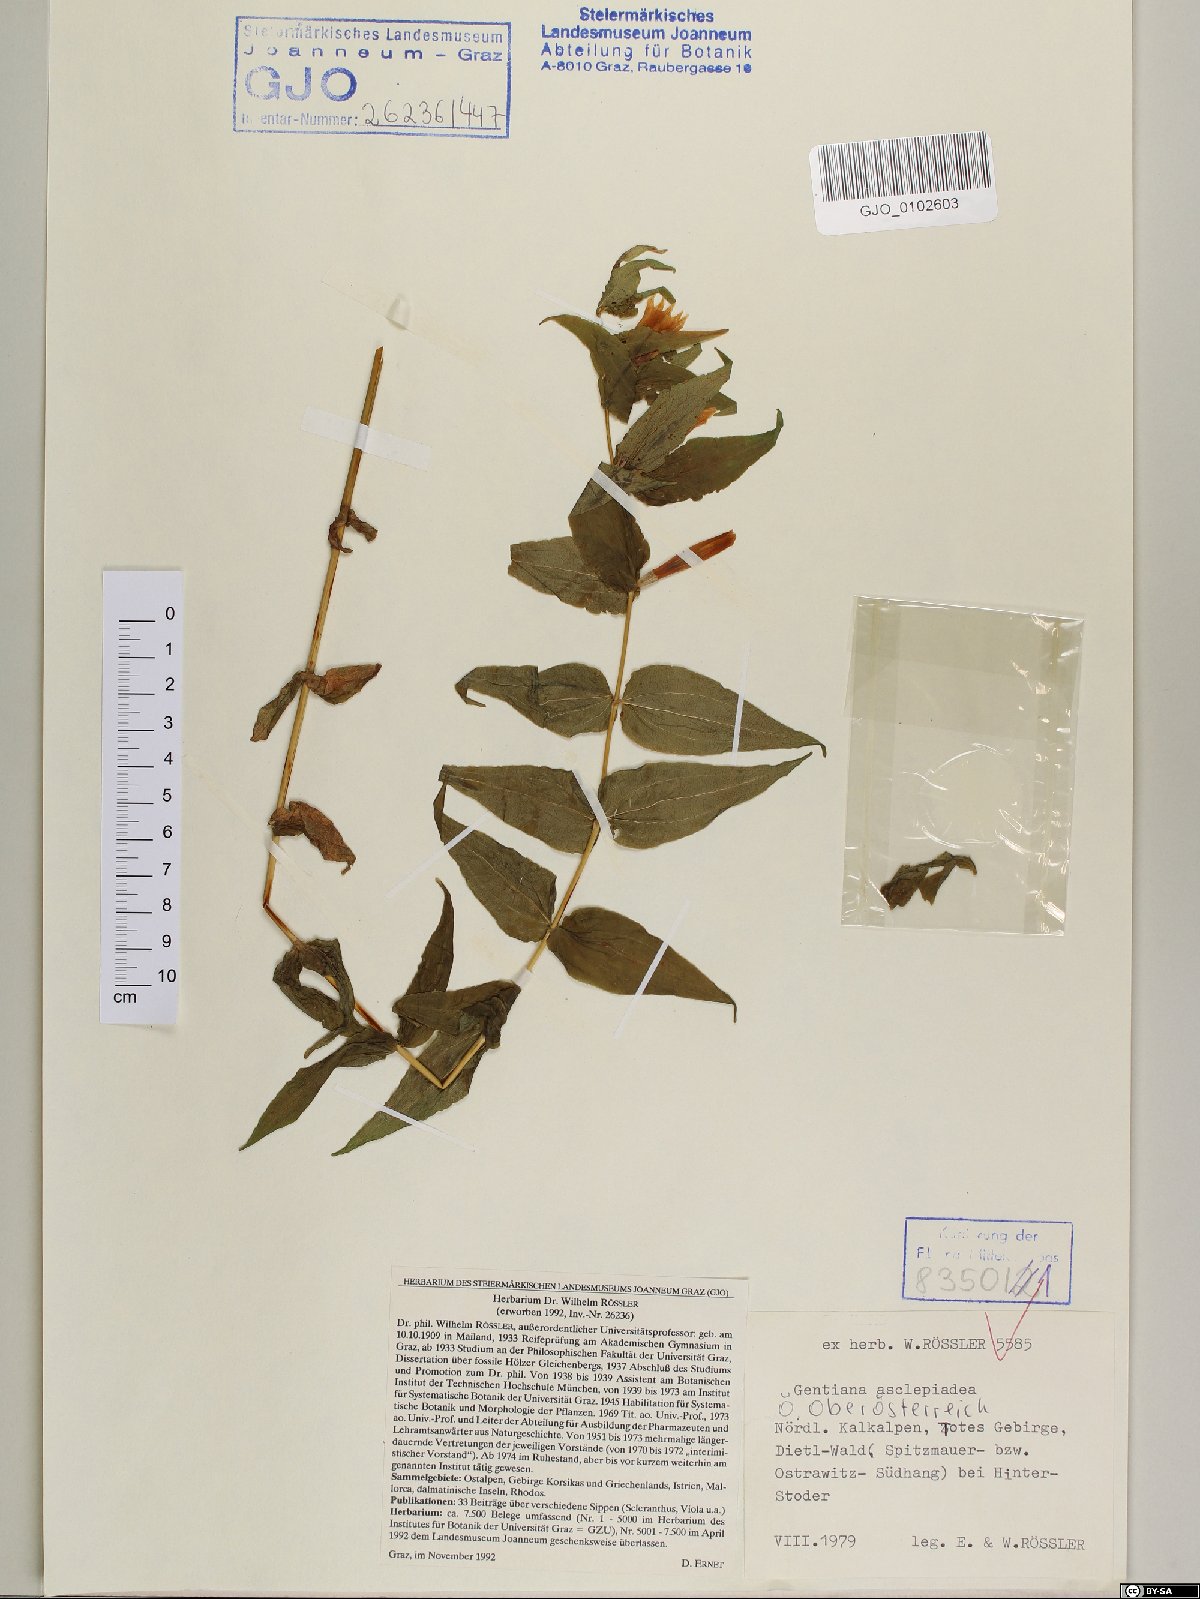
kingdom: Plantae
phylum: Tracheophyta
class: Magnoliopsida
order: Gentianales
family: Gentianaceae
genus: Gentiana
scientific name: Gentiana asclepiadea
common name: Willow gentian
